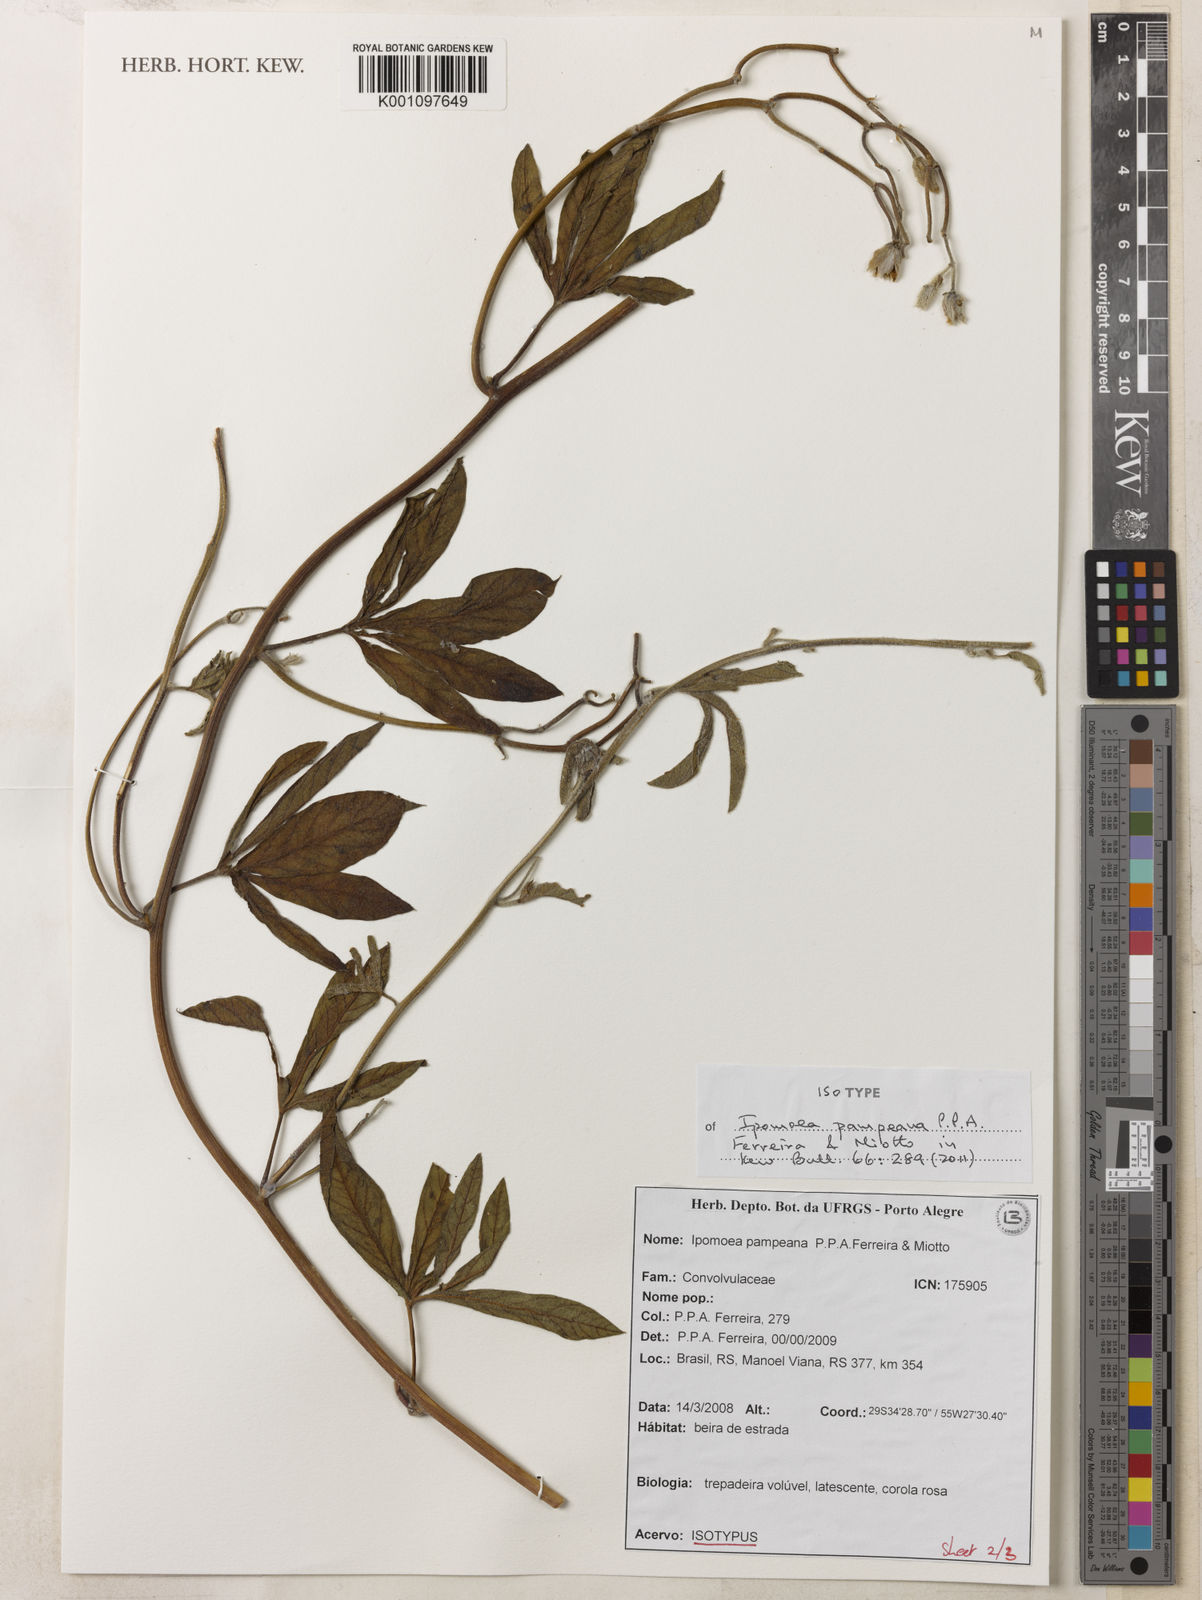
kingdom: Plantae
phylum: Tracheophyta
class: Magnoliopsida
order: Solanales
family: Convolvulaceae
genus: Ipomoea
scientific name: Ipomoea pampeana
